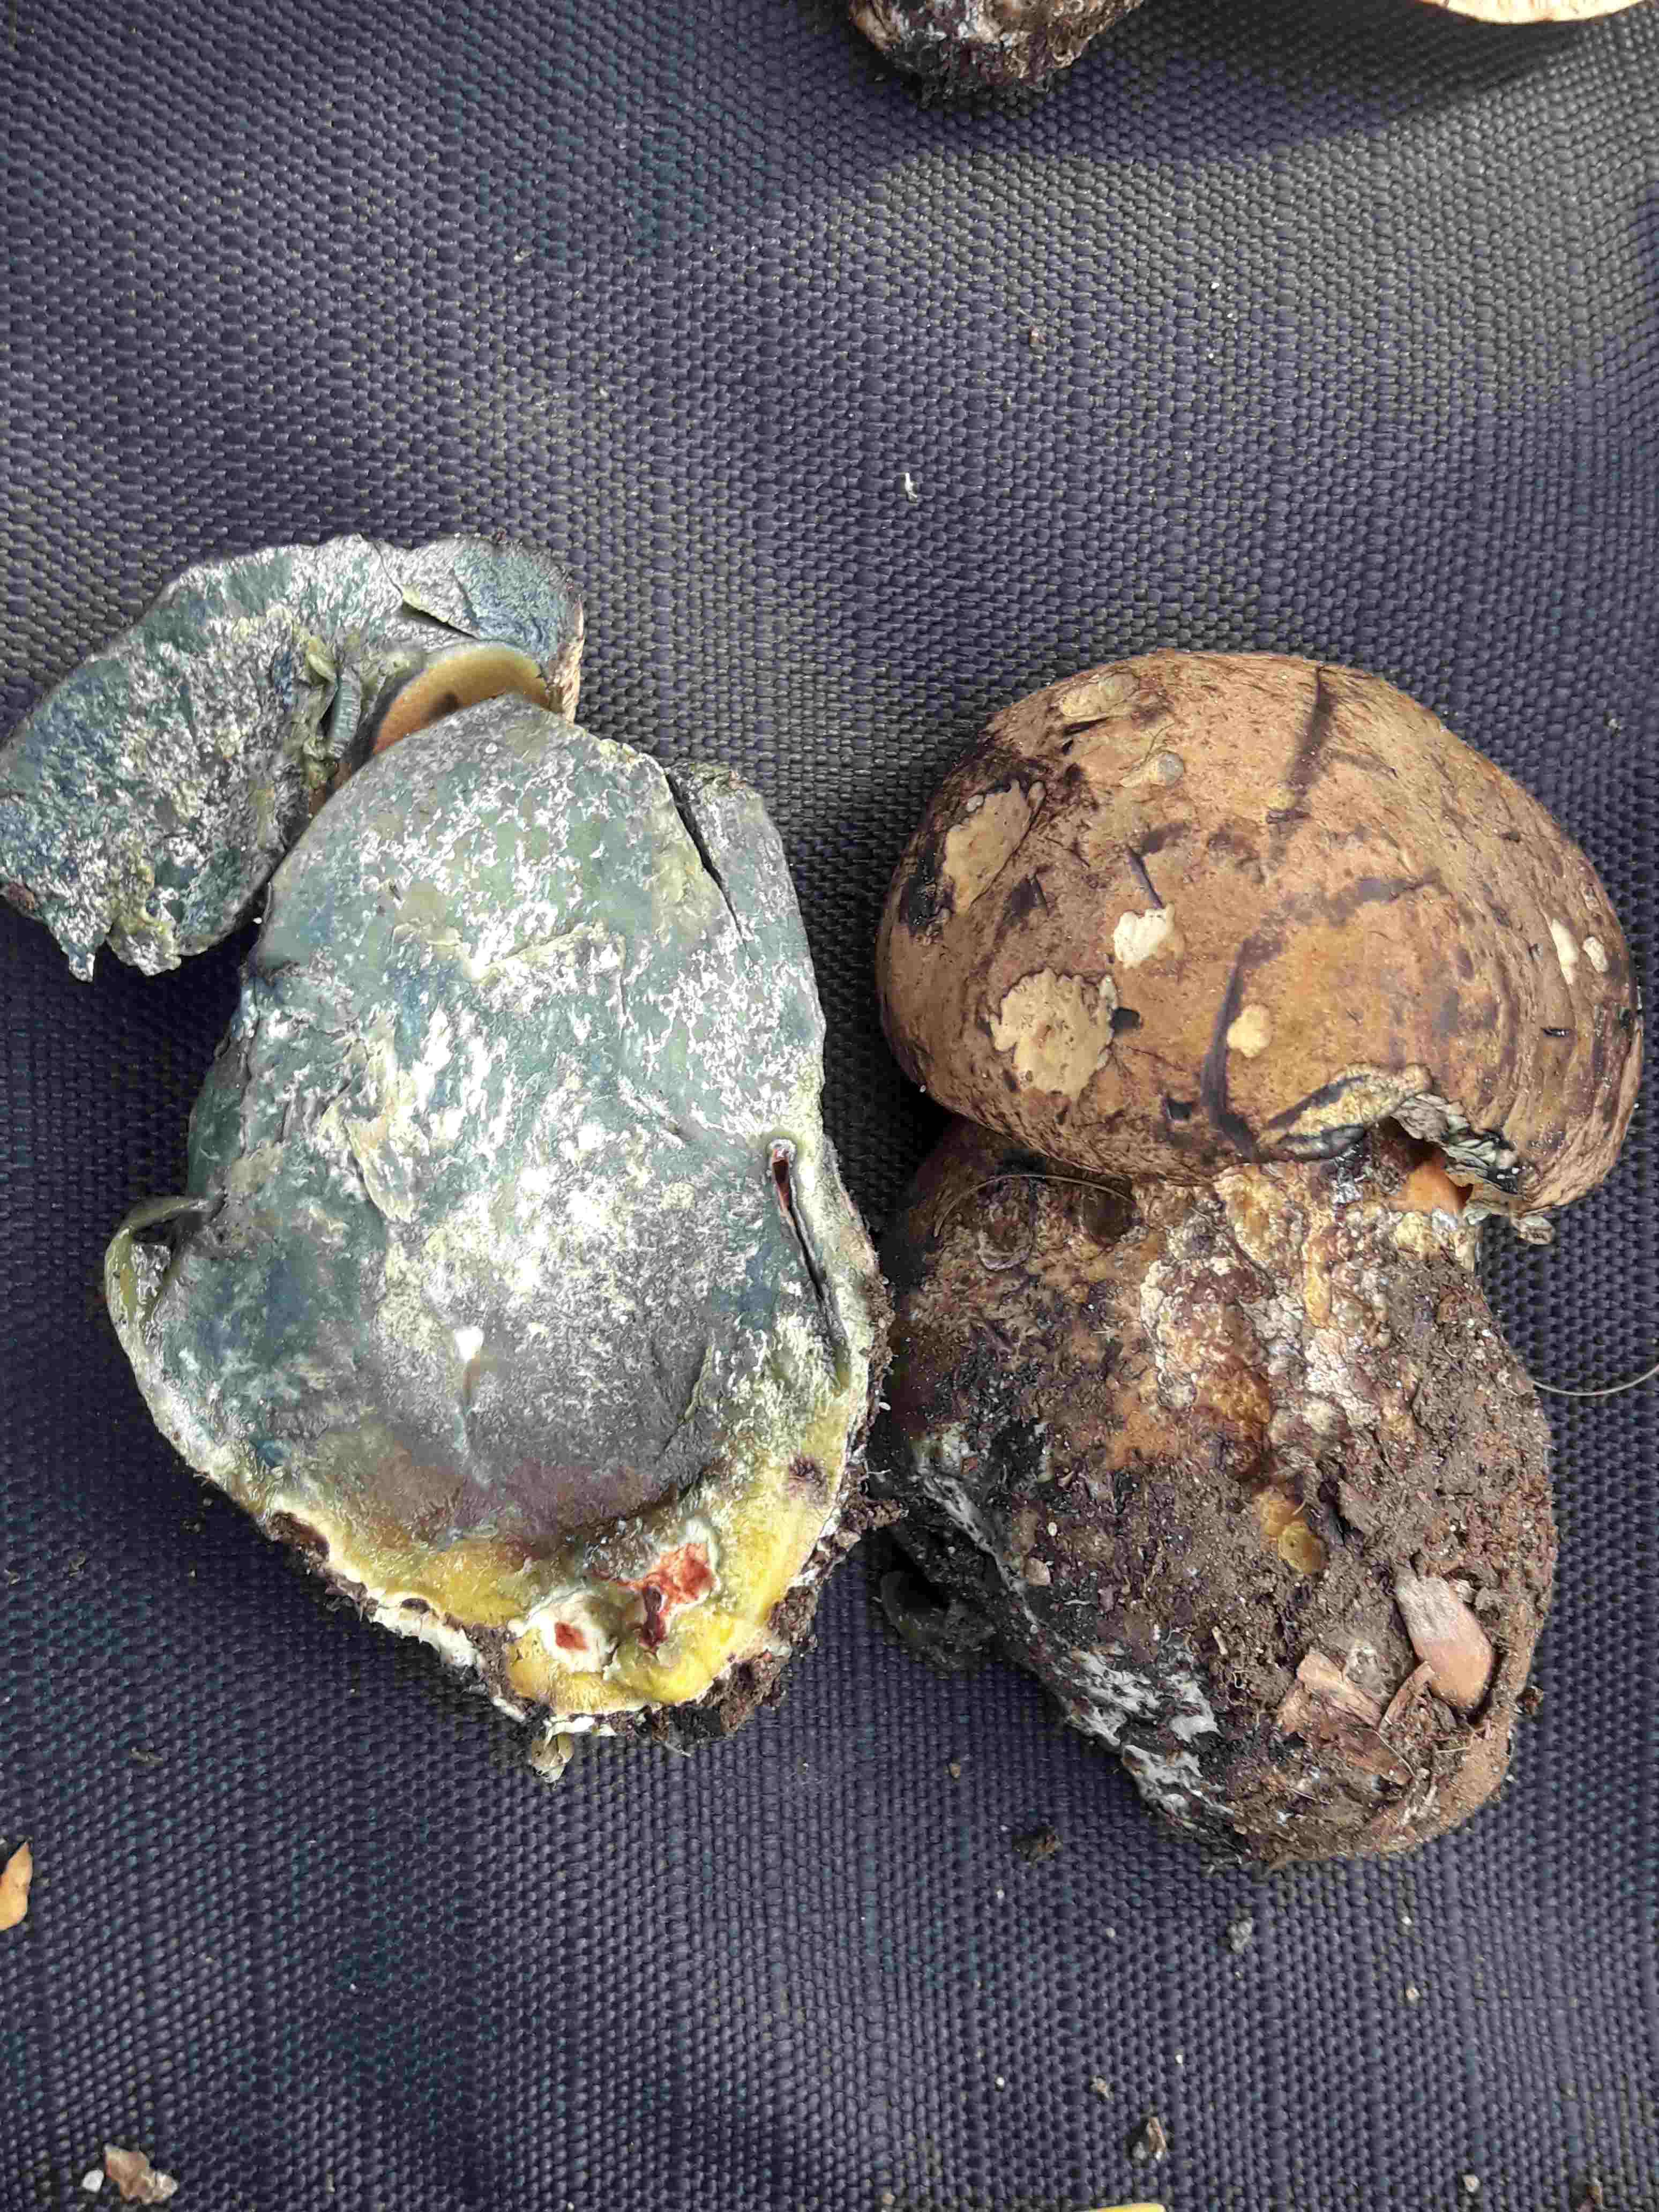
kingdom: Fungi
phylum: Basidiomycota
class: Agaricomycetes
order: Boletales
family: Boletaceae
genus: Cyanoboletus
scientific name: Cyanoboletus pulverulentus
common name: sortblånende rørhat
